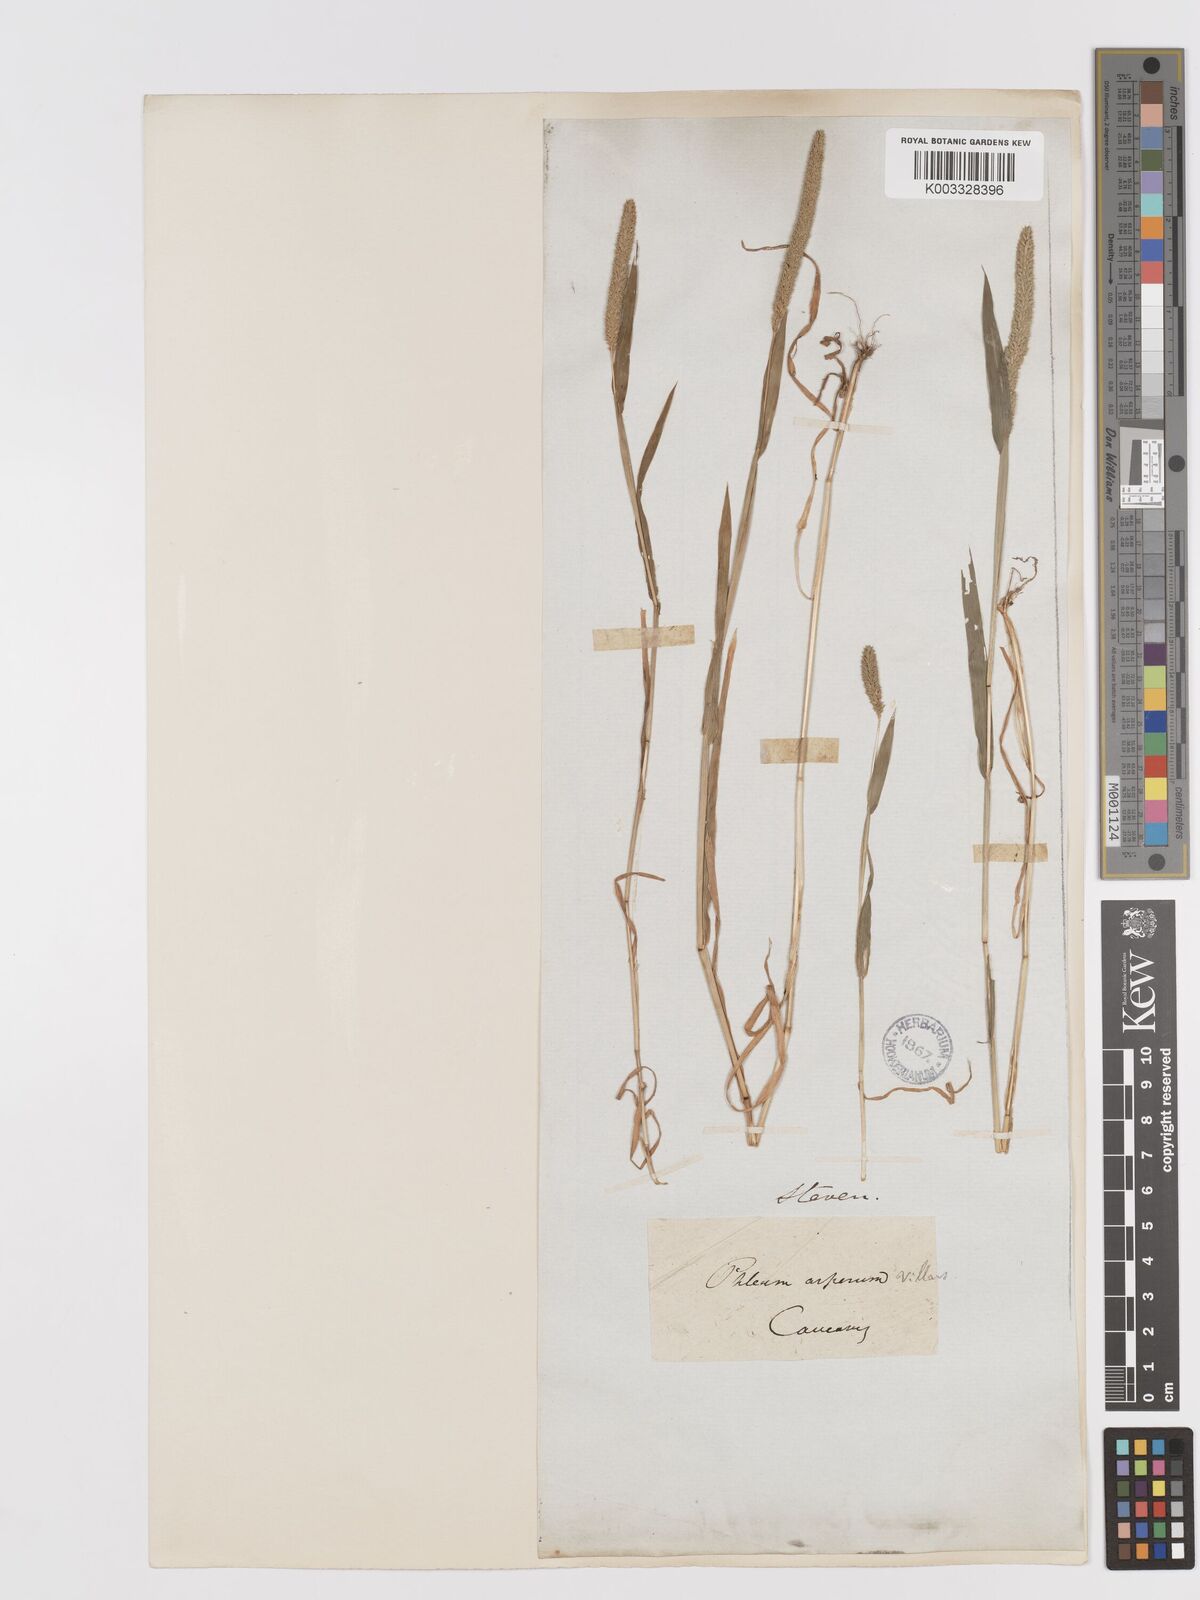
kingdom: Plantae
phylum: Tracheophyta
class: Liliopsida
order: Poales
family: Poaceae
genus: Phleum
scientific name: Phleum paniculatum
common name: British timothy
